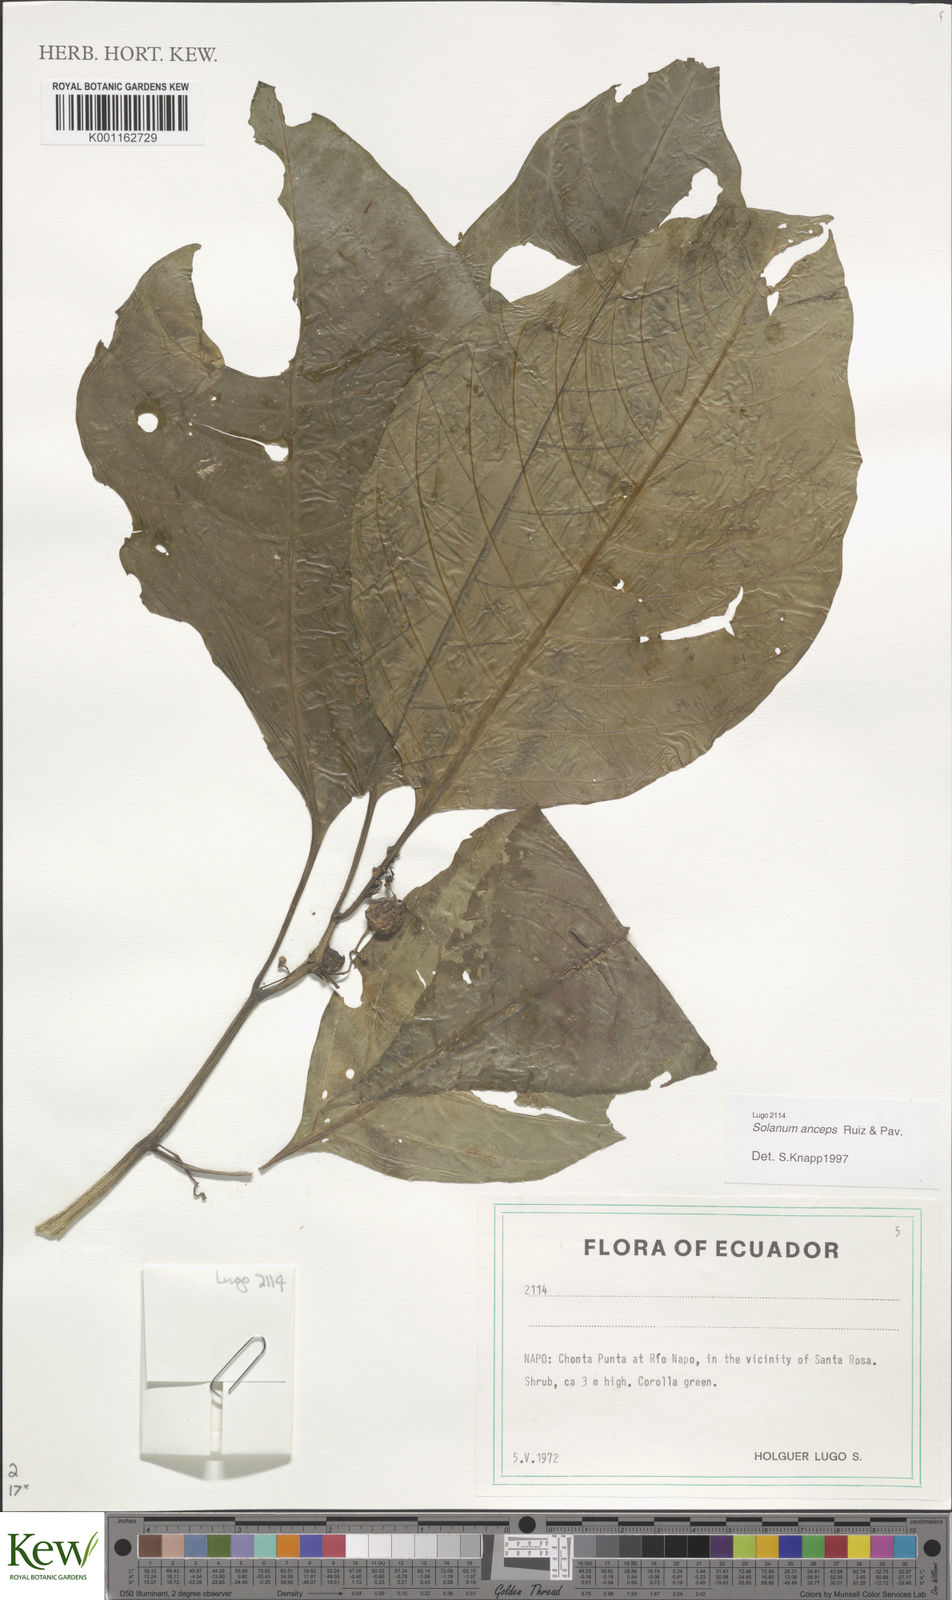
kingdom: Plantae
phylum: Tracheophyta
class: Magnoliopsida
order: Solanales
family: Solanaceae
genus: Solanum
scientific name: Solanum anceps
